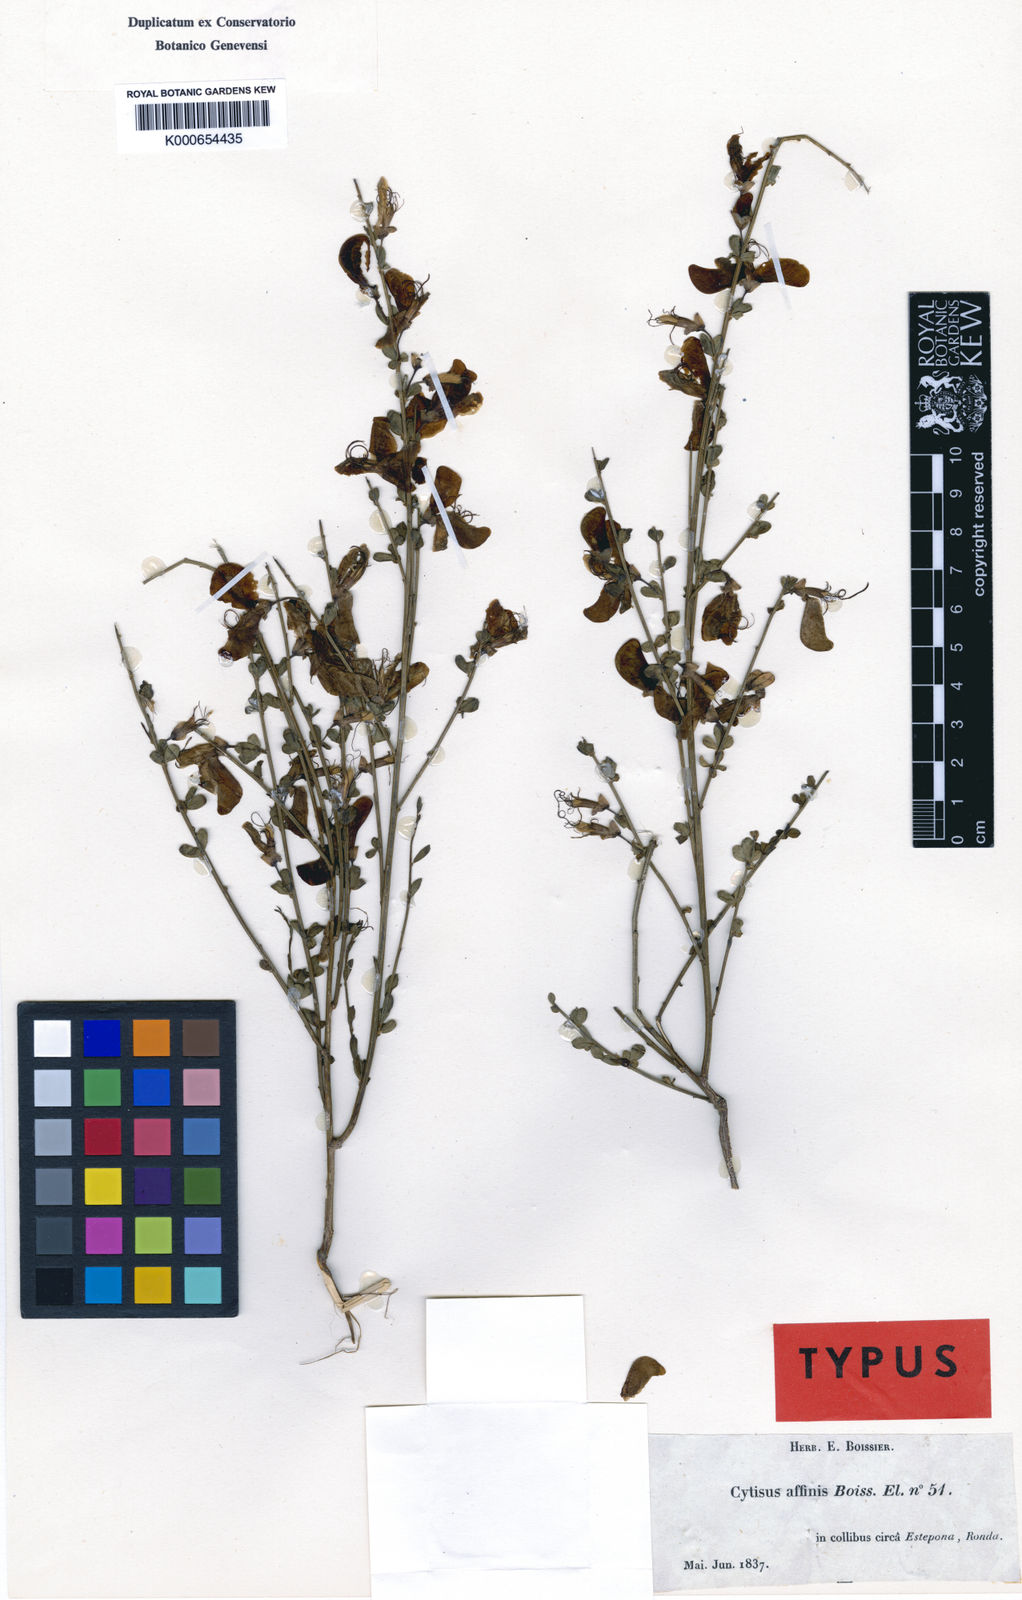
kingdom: Plantae
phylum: Tracheophyta
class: Magnoliopsida
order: Fabales
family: Fabaceae
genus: Cytisus
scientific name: Cytisus grandiflorus
